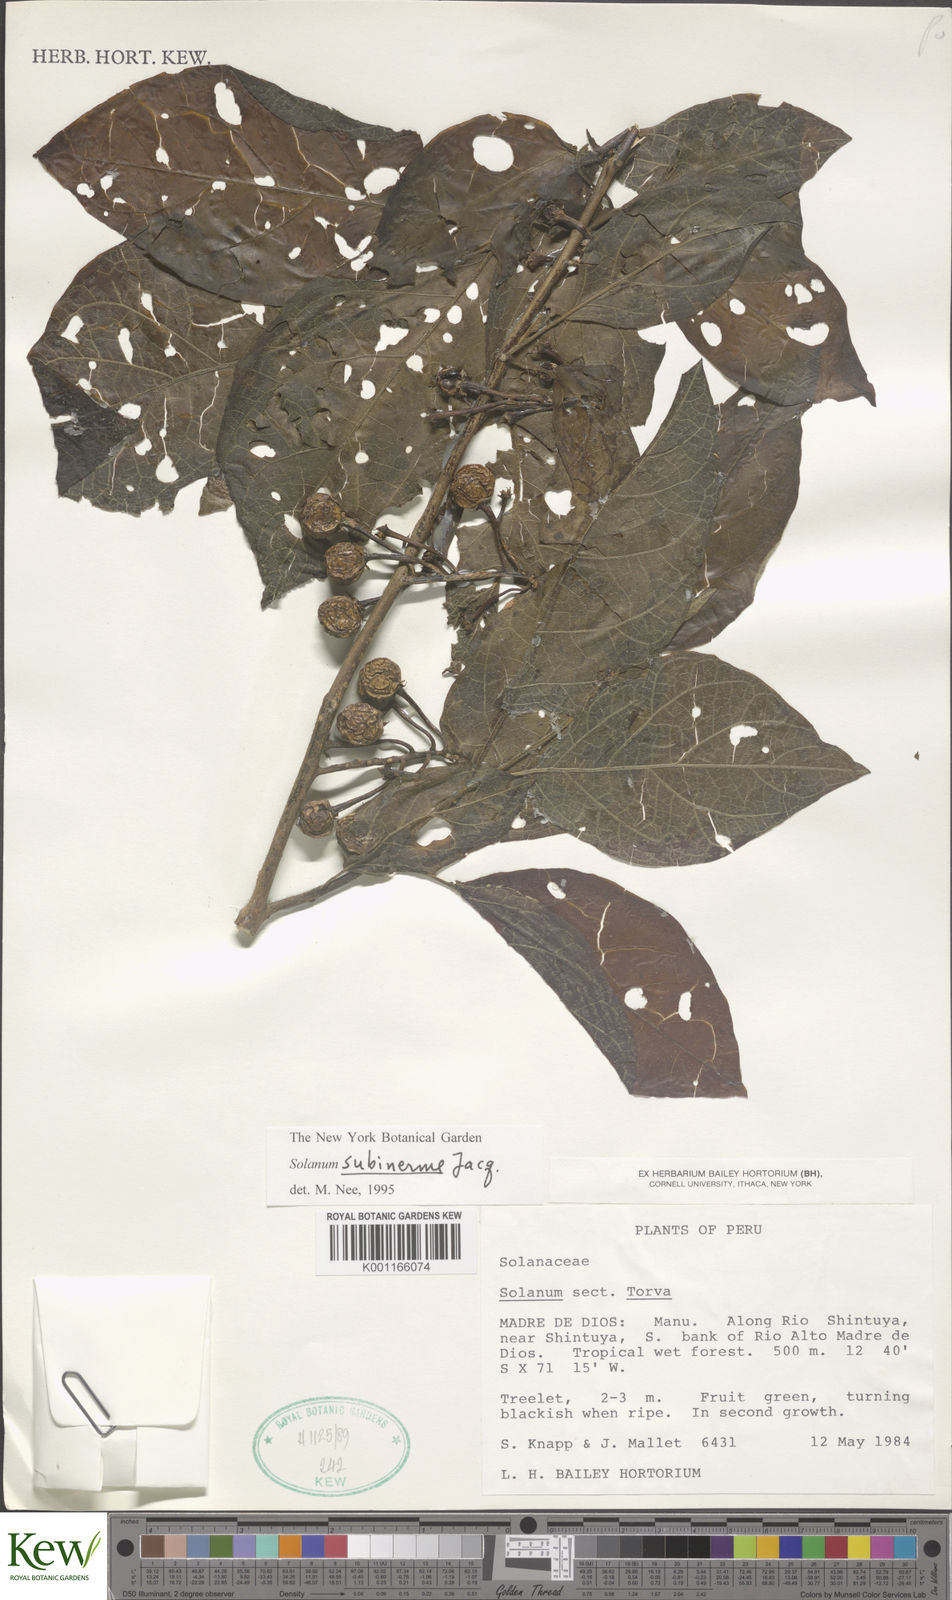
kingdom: Plantae
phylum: Tracheophyta
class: Magnoliopsida
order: Solanales
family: Solanaceae
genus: Solanum
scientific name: Solanum subinerme
